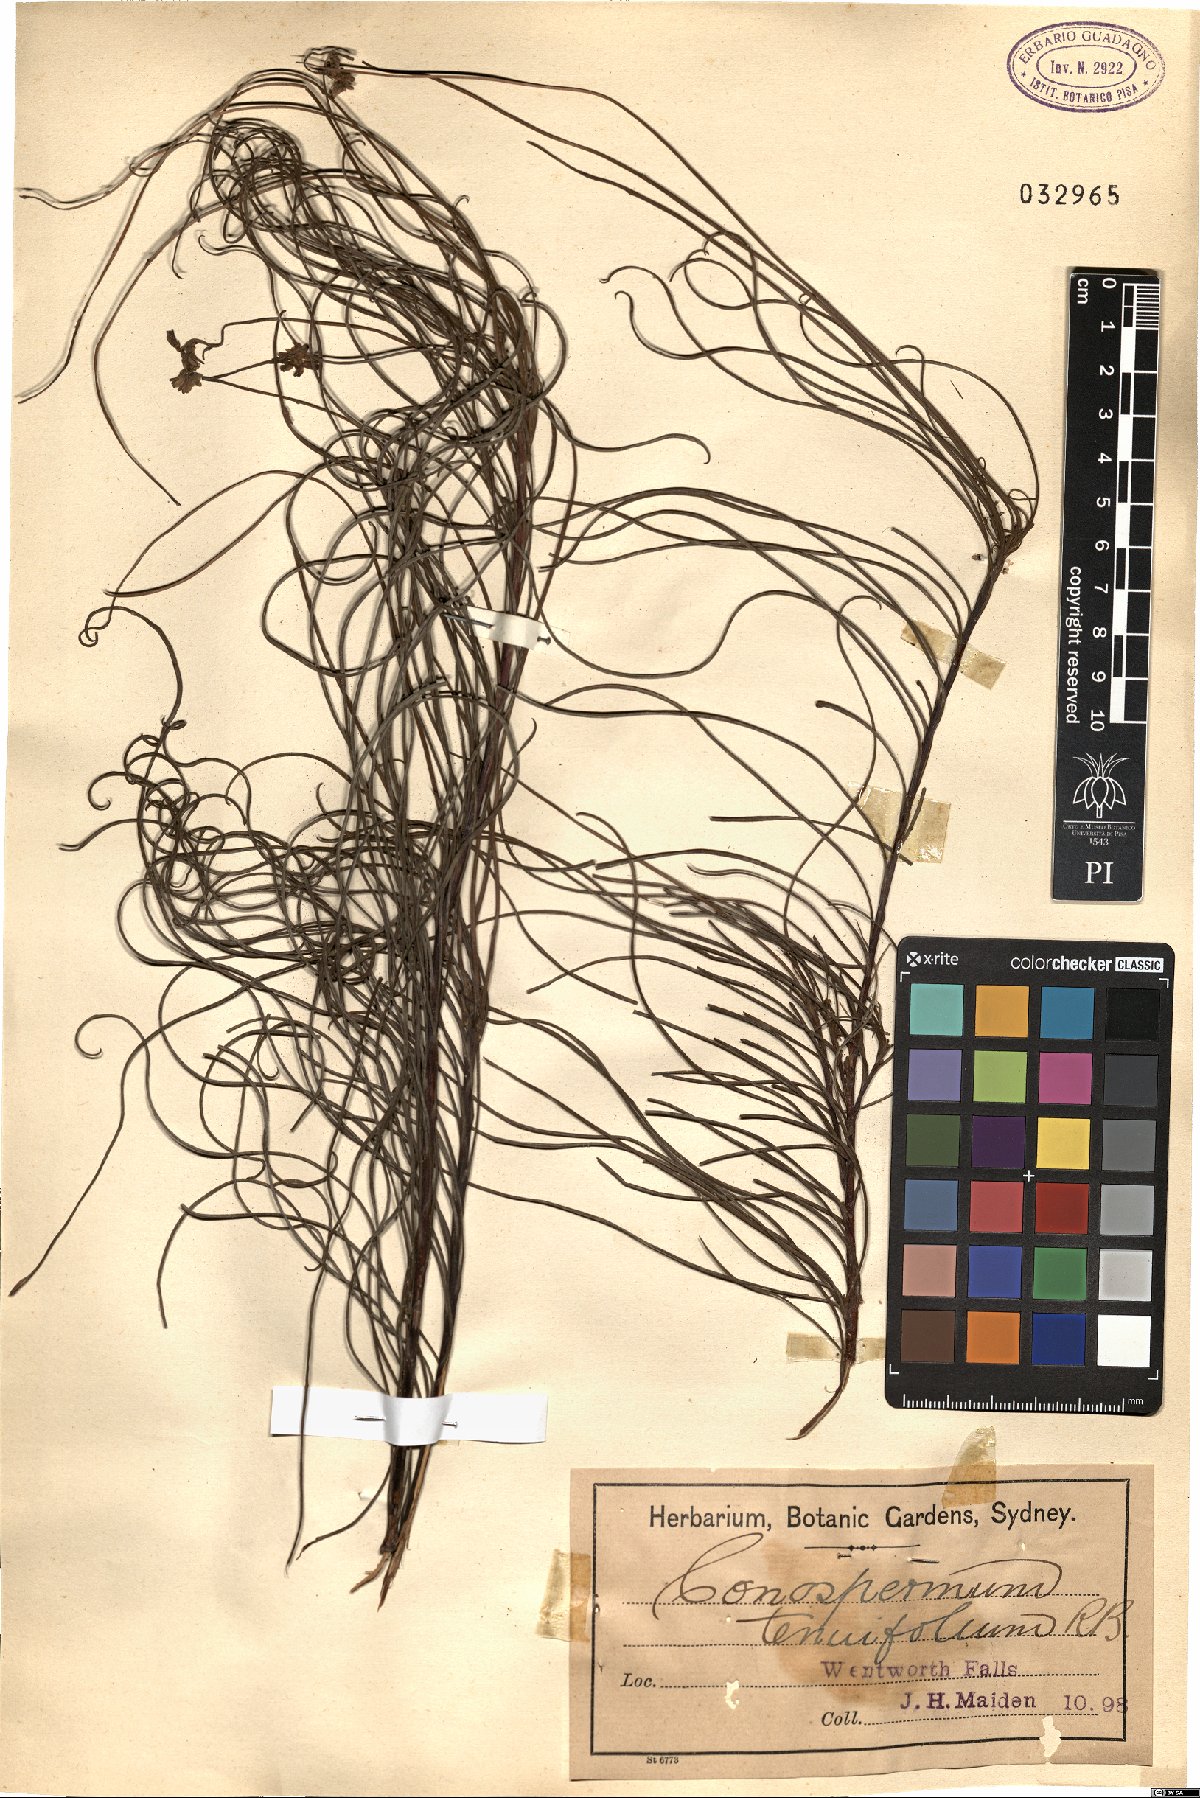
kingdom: Plantae
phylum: Tracheophyta
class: Magnoliopsida
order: Proteales
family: Proteaceae
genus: Conospermum
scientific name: Conospermum tenuifolium
